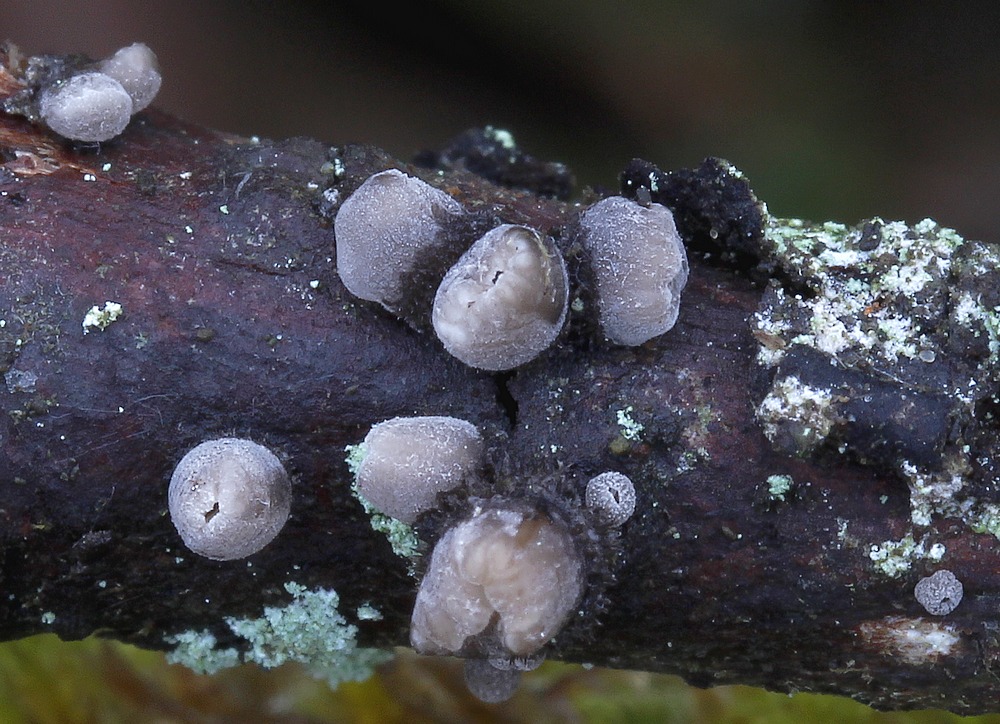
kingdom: Fungi
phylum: Basidiomycota
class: Agaricomycetes
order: Agaricales
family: Pleurotaceae
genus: Resupinatus
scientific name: Resupinatus trichotis
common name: mørkfiltet barkhat
